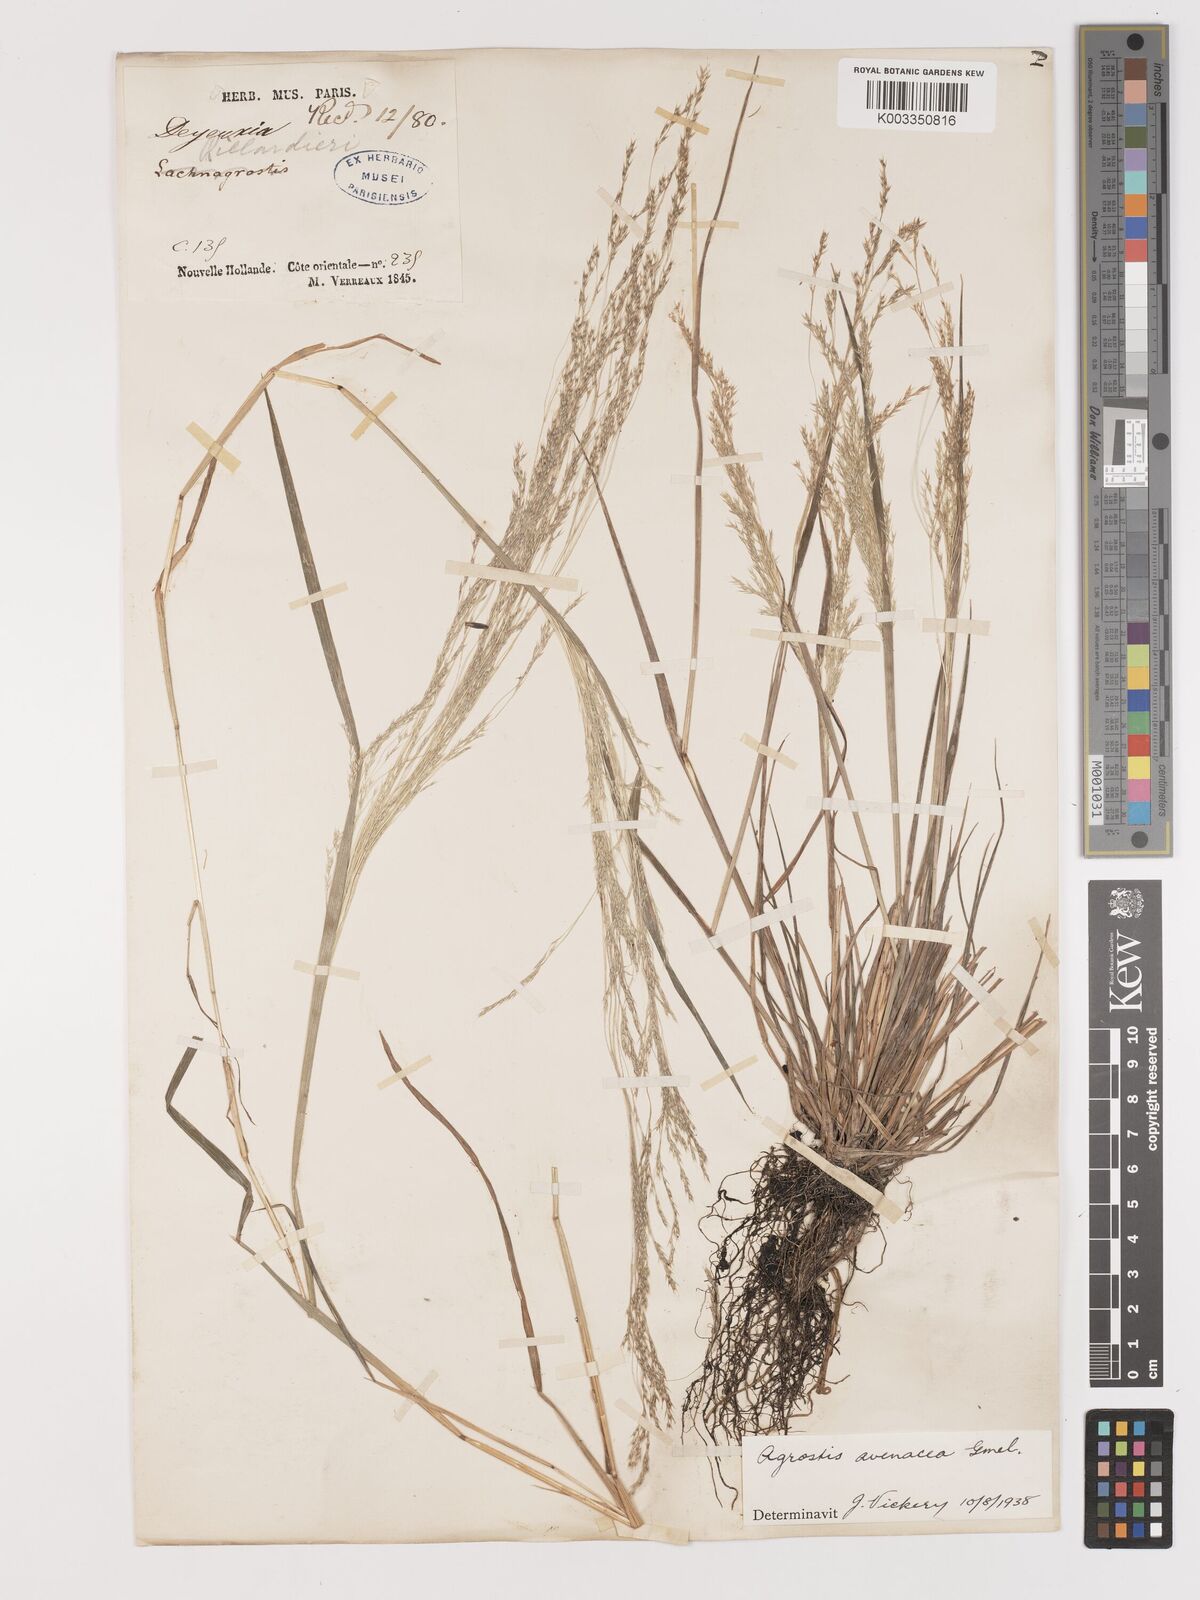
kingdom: Plantae
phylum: Tracheophyta
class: Liliopsida
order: Poales
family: Poaceae
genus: Lachnagrostis
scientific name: Lachnagrostis filiformis
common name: Bentgrass
